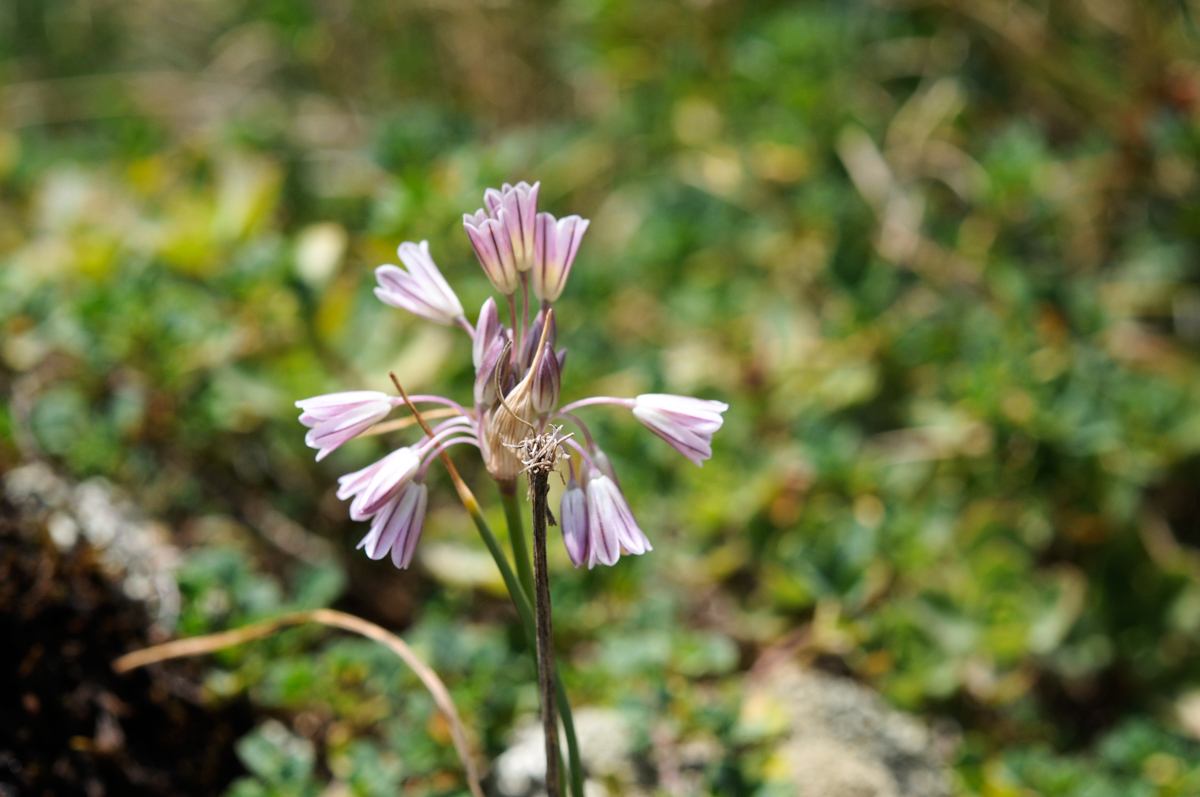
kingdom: Plantae
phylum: Tracheophyta
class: Liliopsida
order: Asparagales
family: Amaryllidaceae
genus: Allium
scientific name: Allium kunthianum
